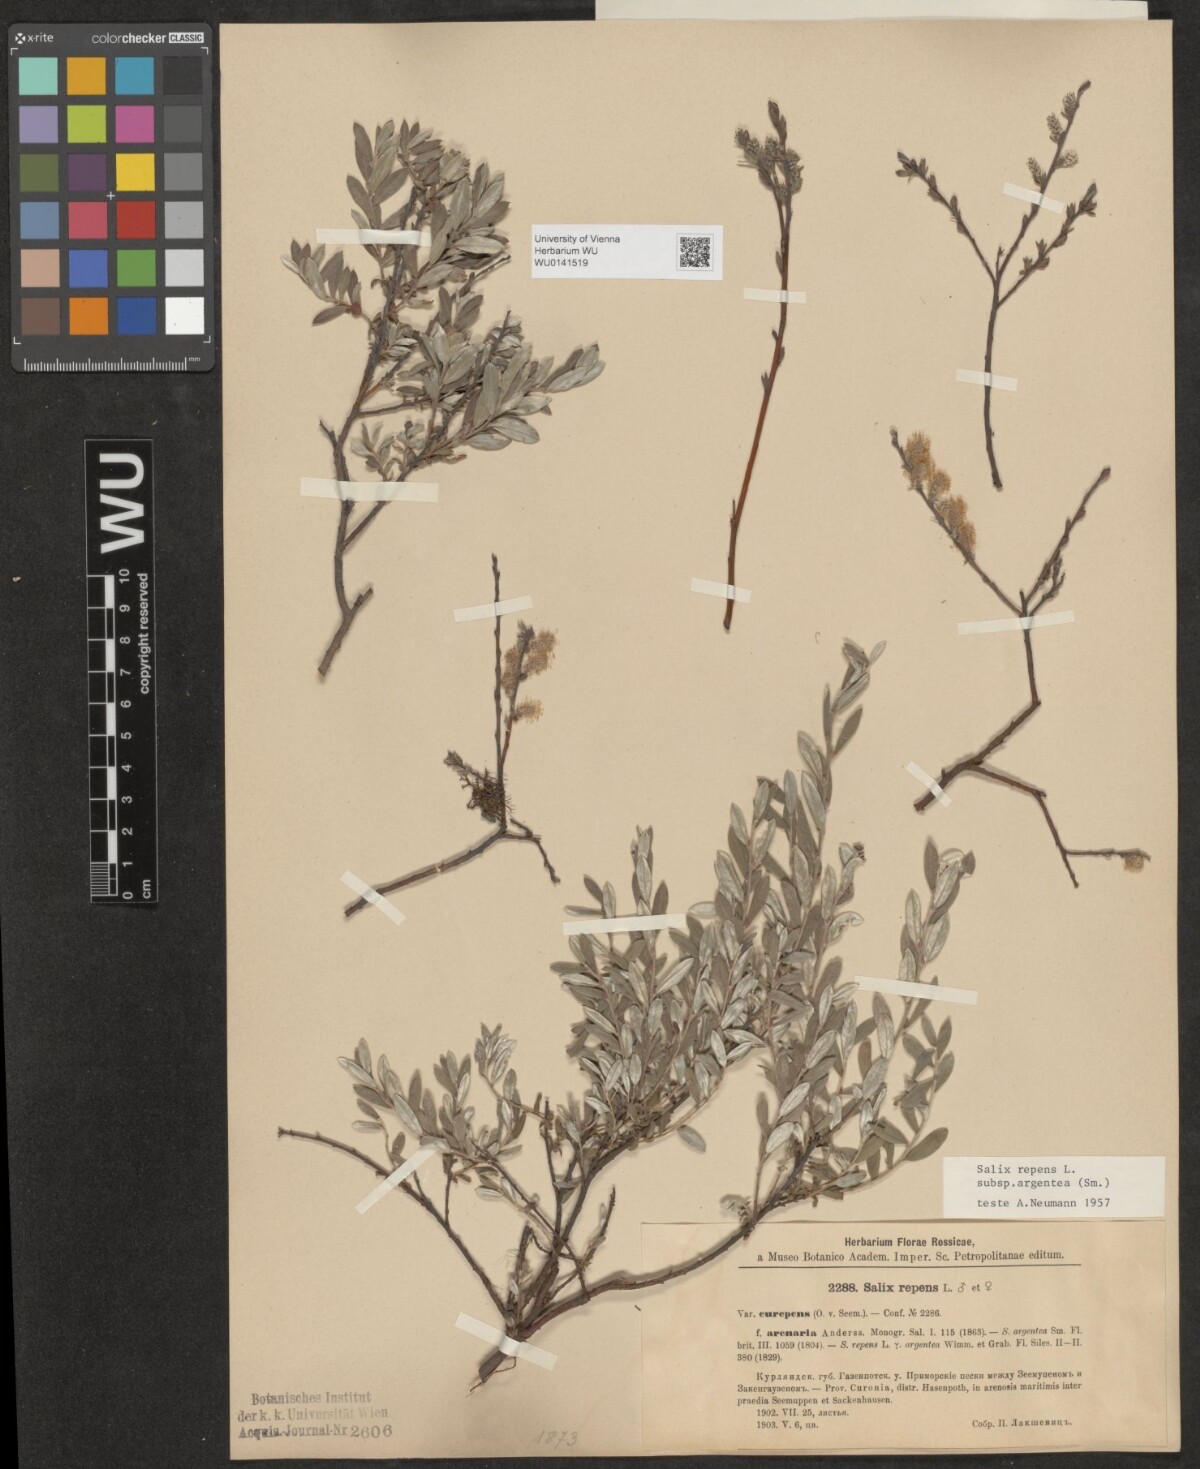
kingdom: Plantae
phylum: Tracheophyta
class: Magnoliopsida
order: Malpighiales
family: Salicaceae
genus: Salix
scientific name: Salix repens
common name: Creeping willow
